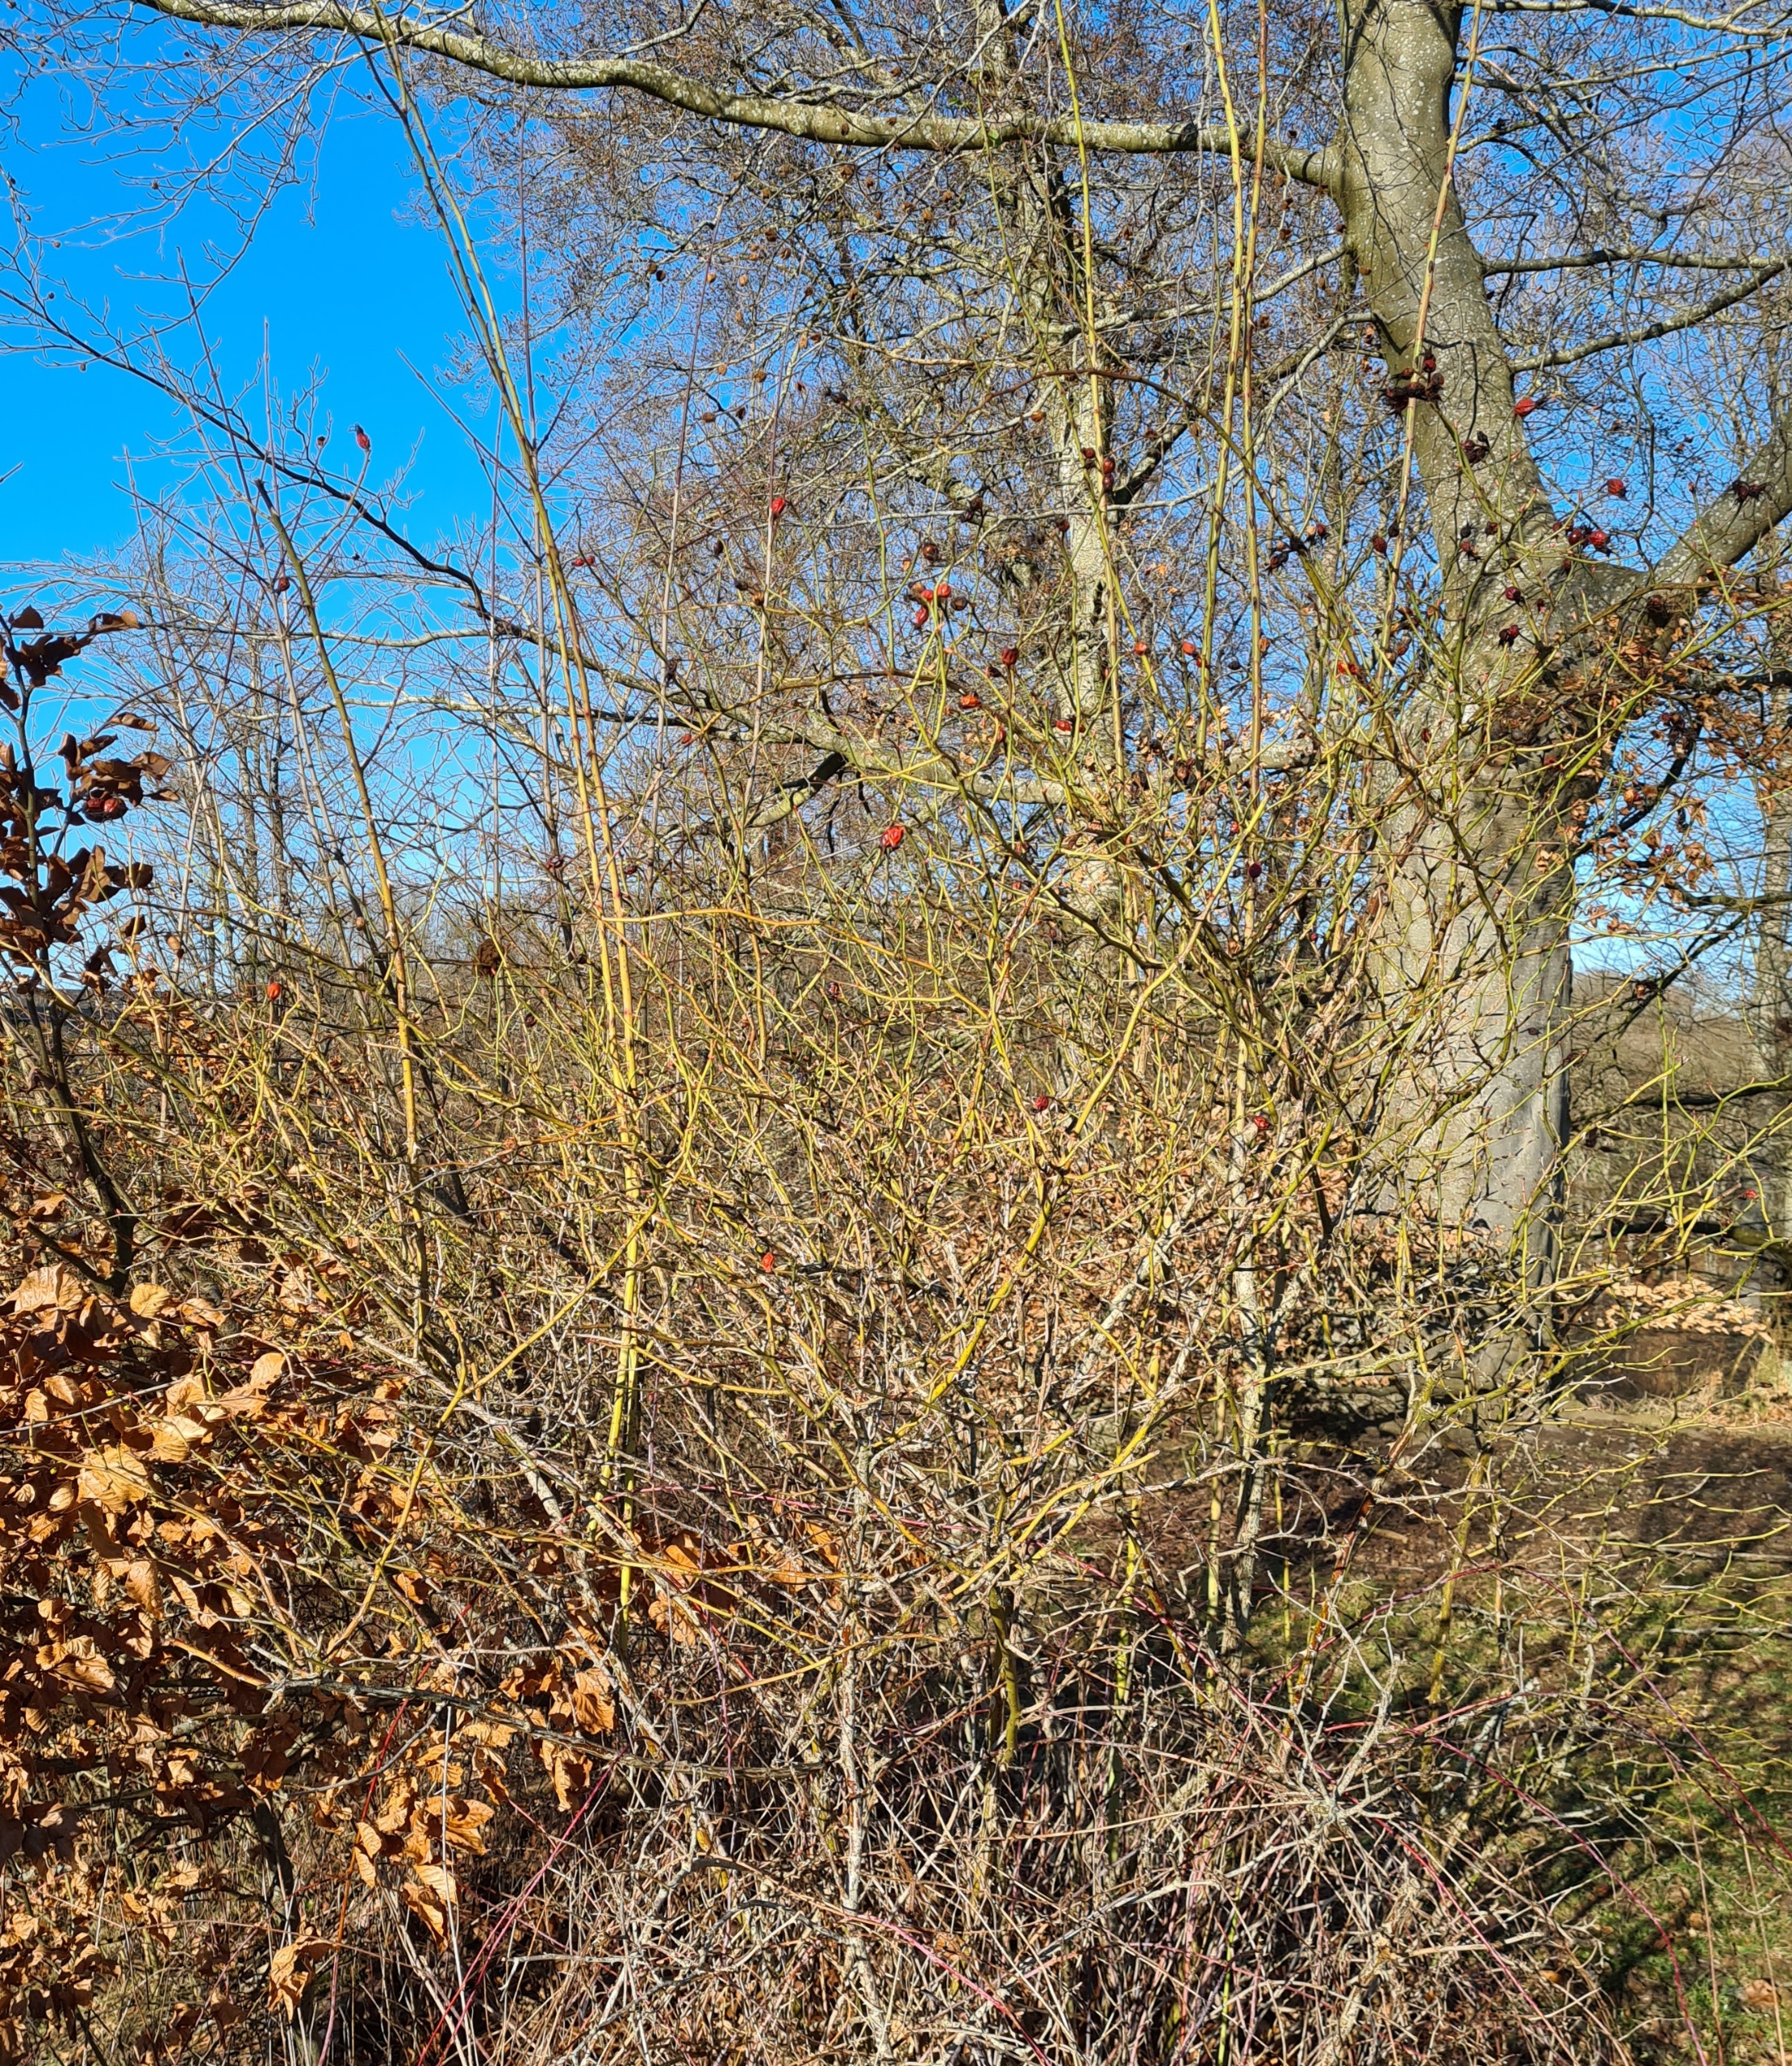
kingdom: Animalia
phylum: Arthropoda
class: Insecta
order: Hymenoptera
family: Cynipidae
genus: Diplolepis
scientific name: Diplolepis rosae
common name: Bedeguargalhveps
